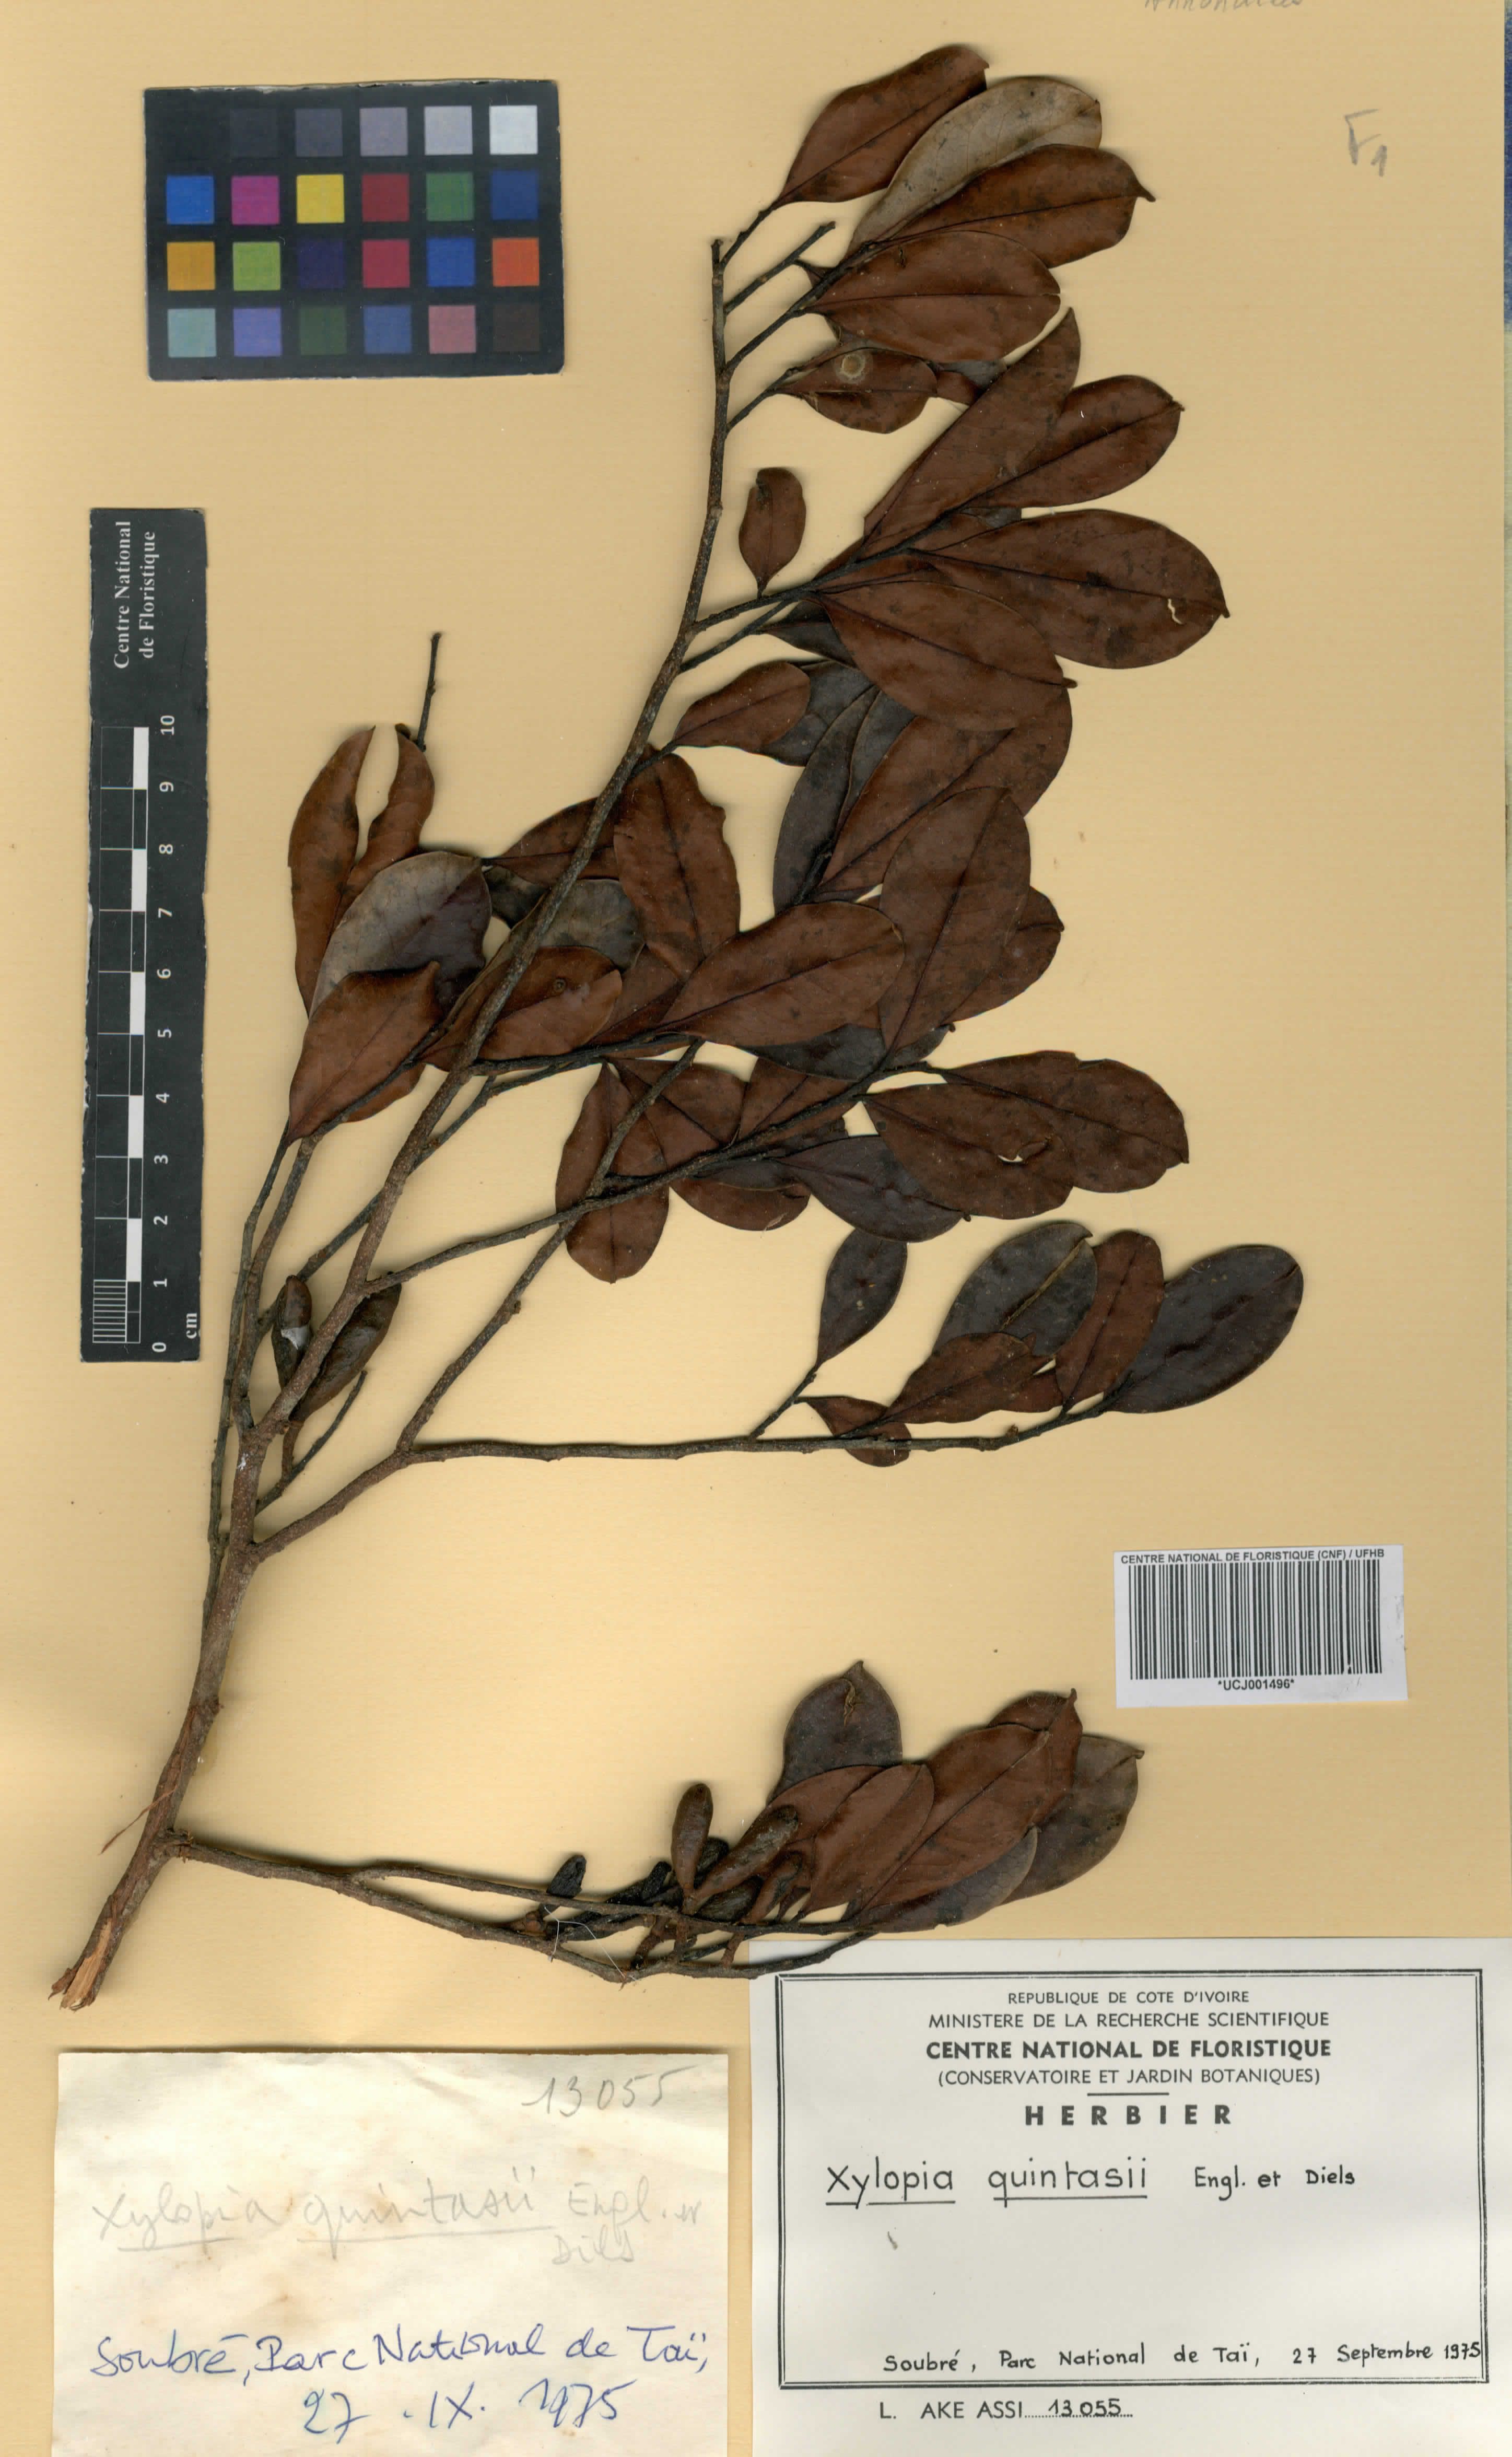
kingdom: Plantae
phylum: Tracheophyta
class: Magnoliopsida
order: Magnoliales
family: Annonaceae
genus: Xylopia
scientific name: Xylopia quintasii
